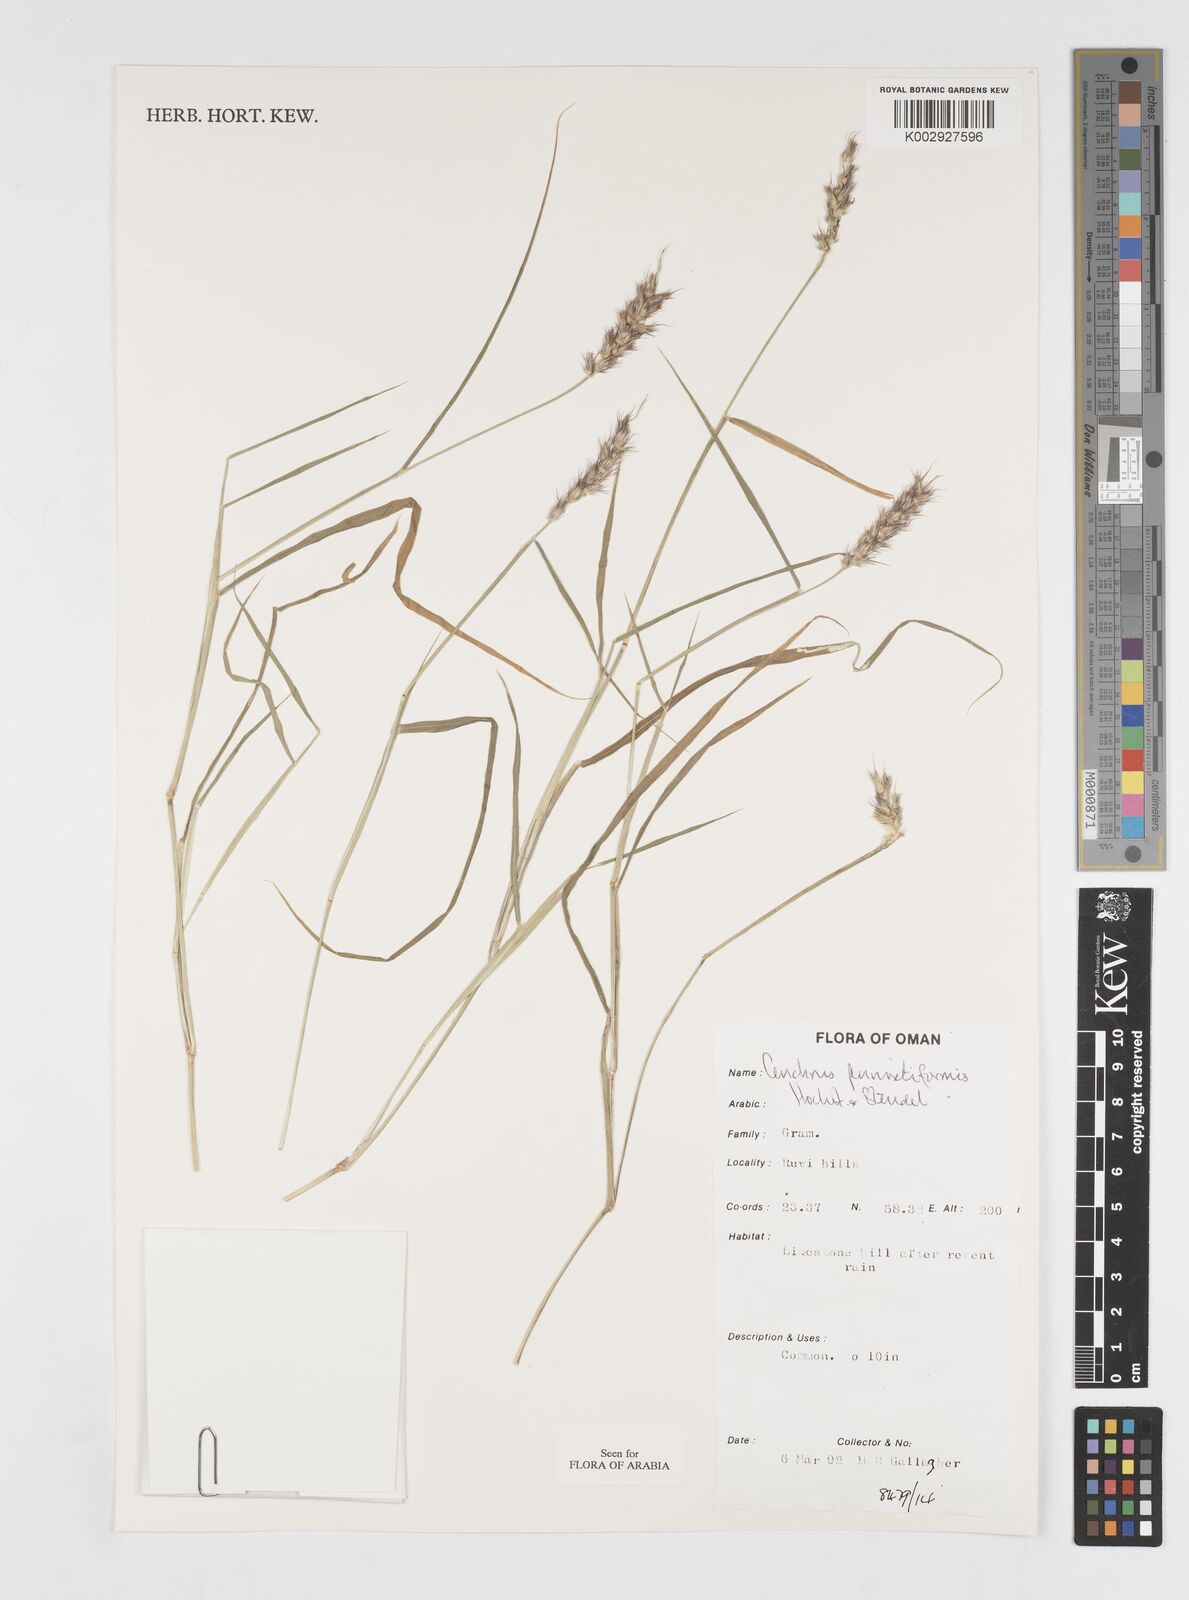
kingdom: Plantae
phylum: Tracheophyta
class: Liliopsida
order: Poales
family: Poaceae
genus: Cenchrus
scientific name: Cenchrus pennisetiformis
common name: Cloncurry
